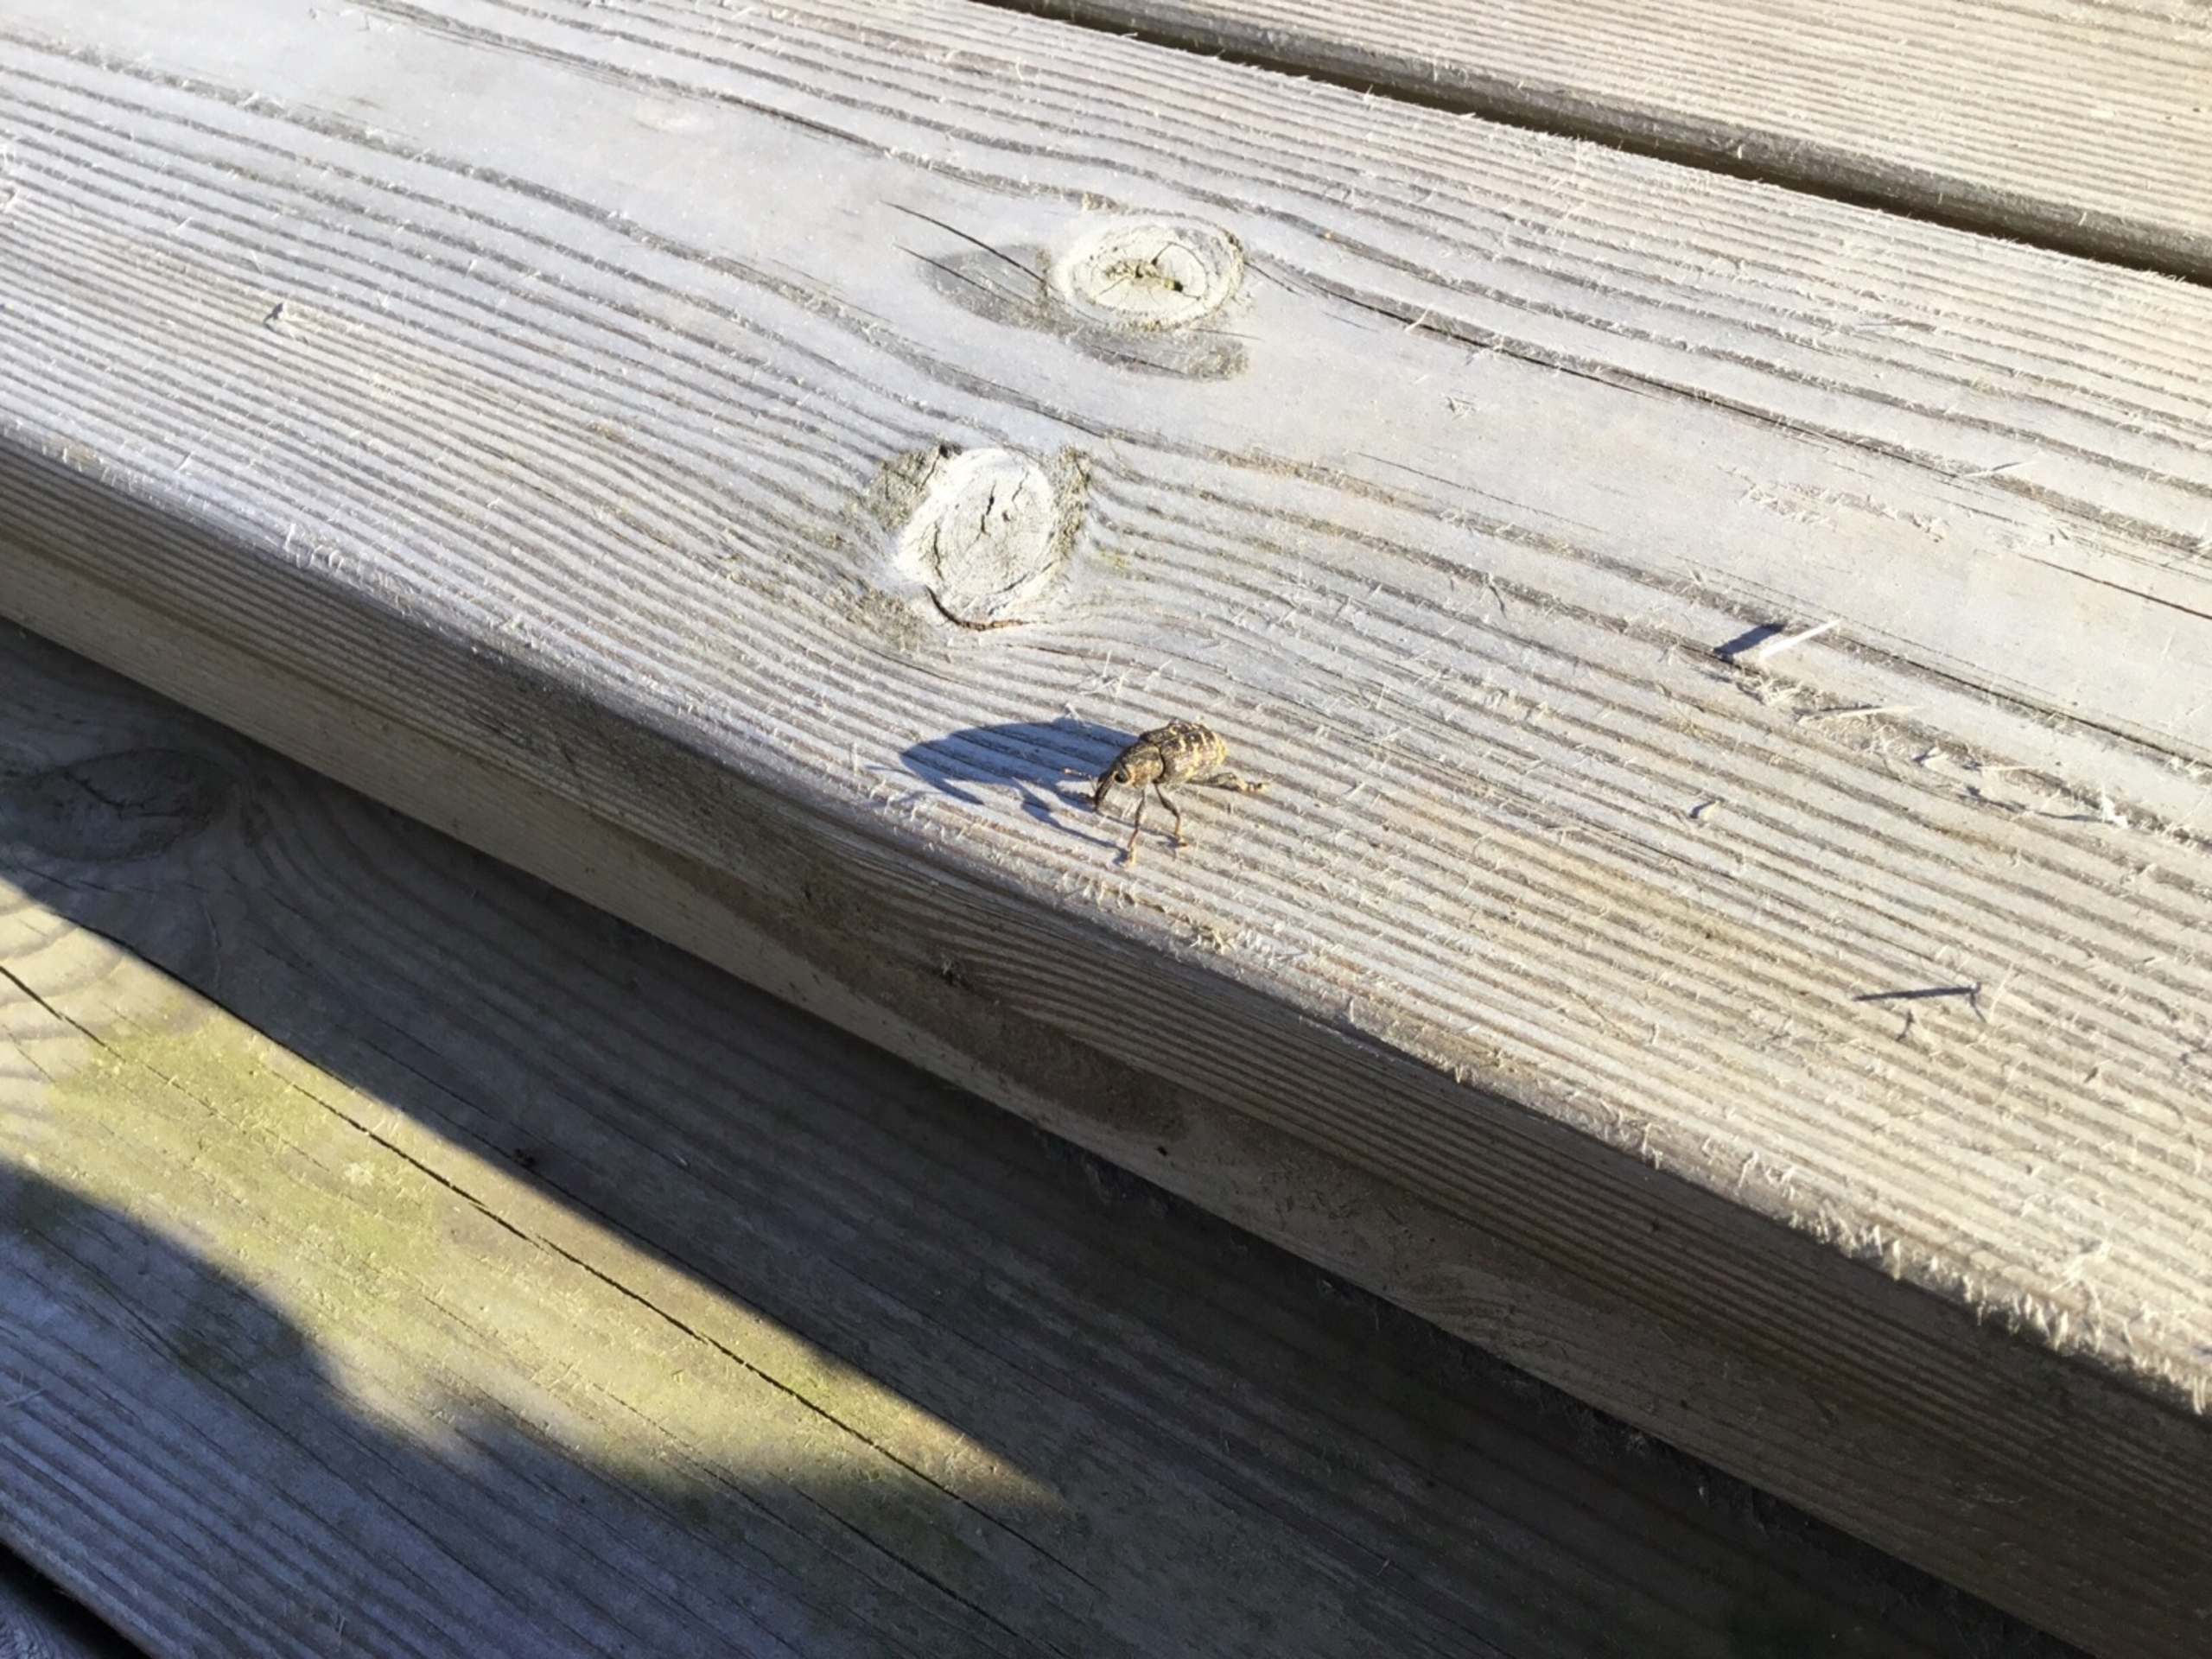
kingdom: Animalia
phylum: Arthropoda
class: Insecta
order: Coleoptera
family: Curculionidae
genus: Hylobius
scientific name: Hylobius abietis
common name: Stor nåletræsnudebille
